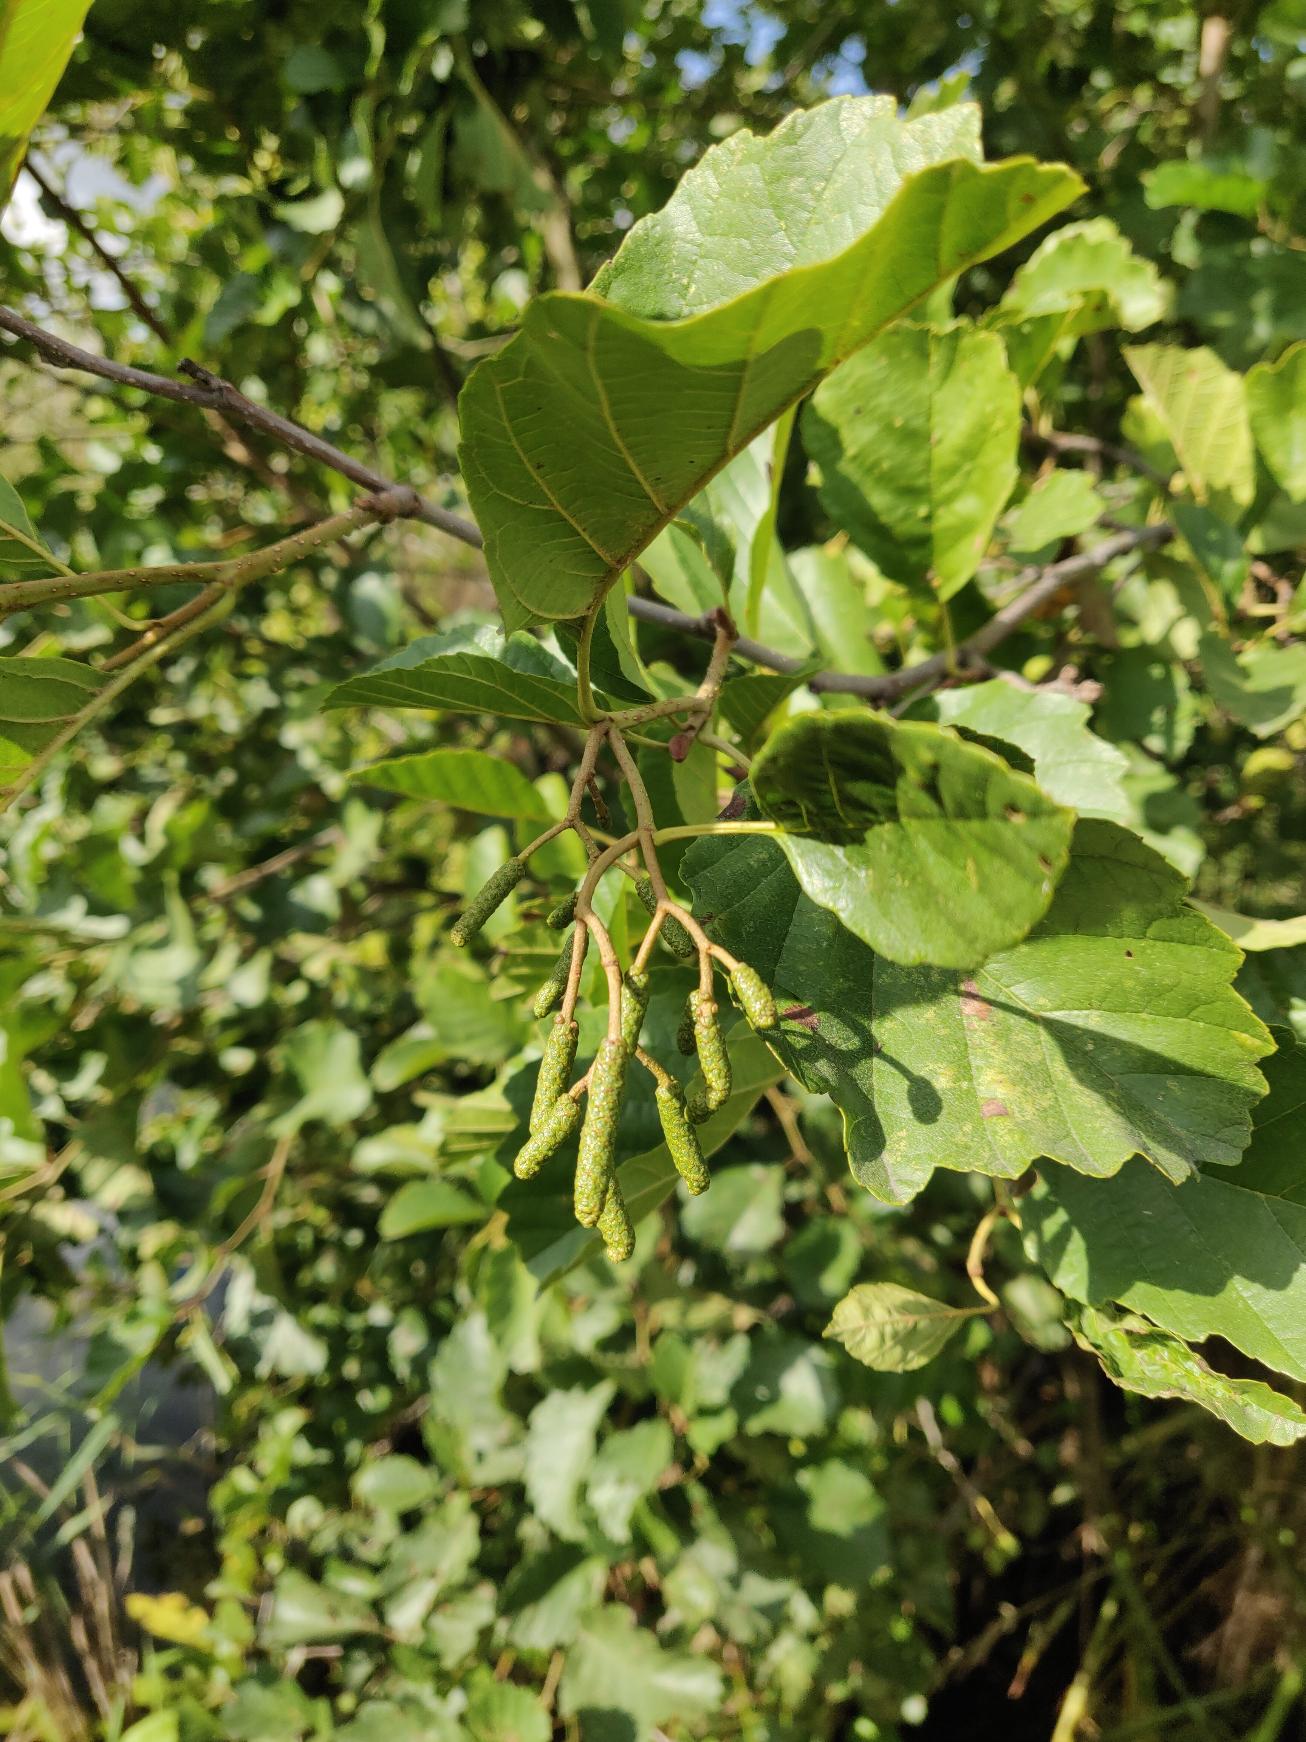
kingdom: Plantae
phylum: Tracheophyta
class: Magnoliopsida
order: Fagales
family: Betulaceae
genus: Alnus
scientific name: Alnus glutinosa
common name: Rød-el
